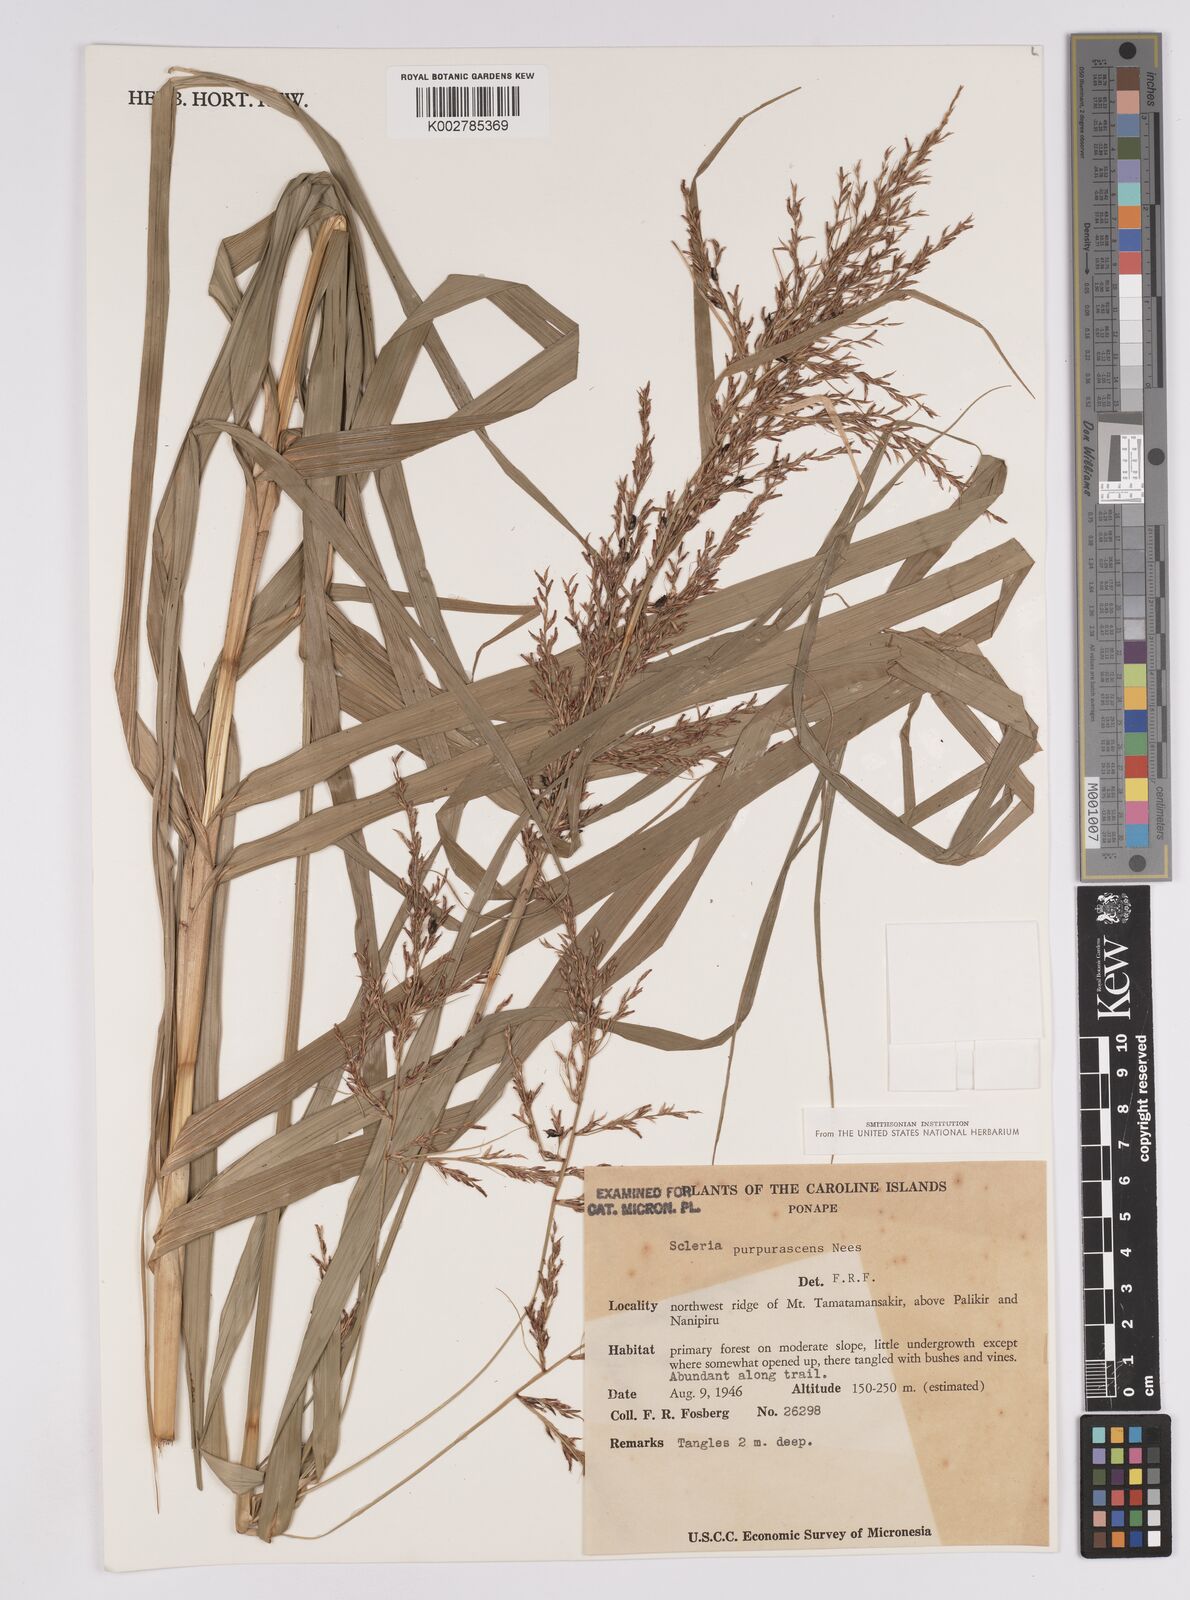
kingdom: Plantae
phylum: Tracheophyta
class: Liliopsida
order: Poales
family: Cyperaceae
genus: Scleria
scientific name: Scleria purpurascens
